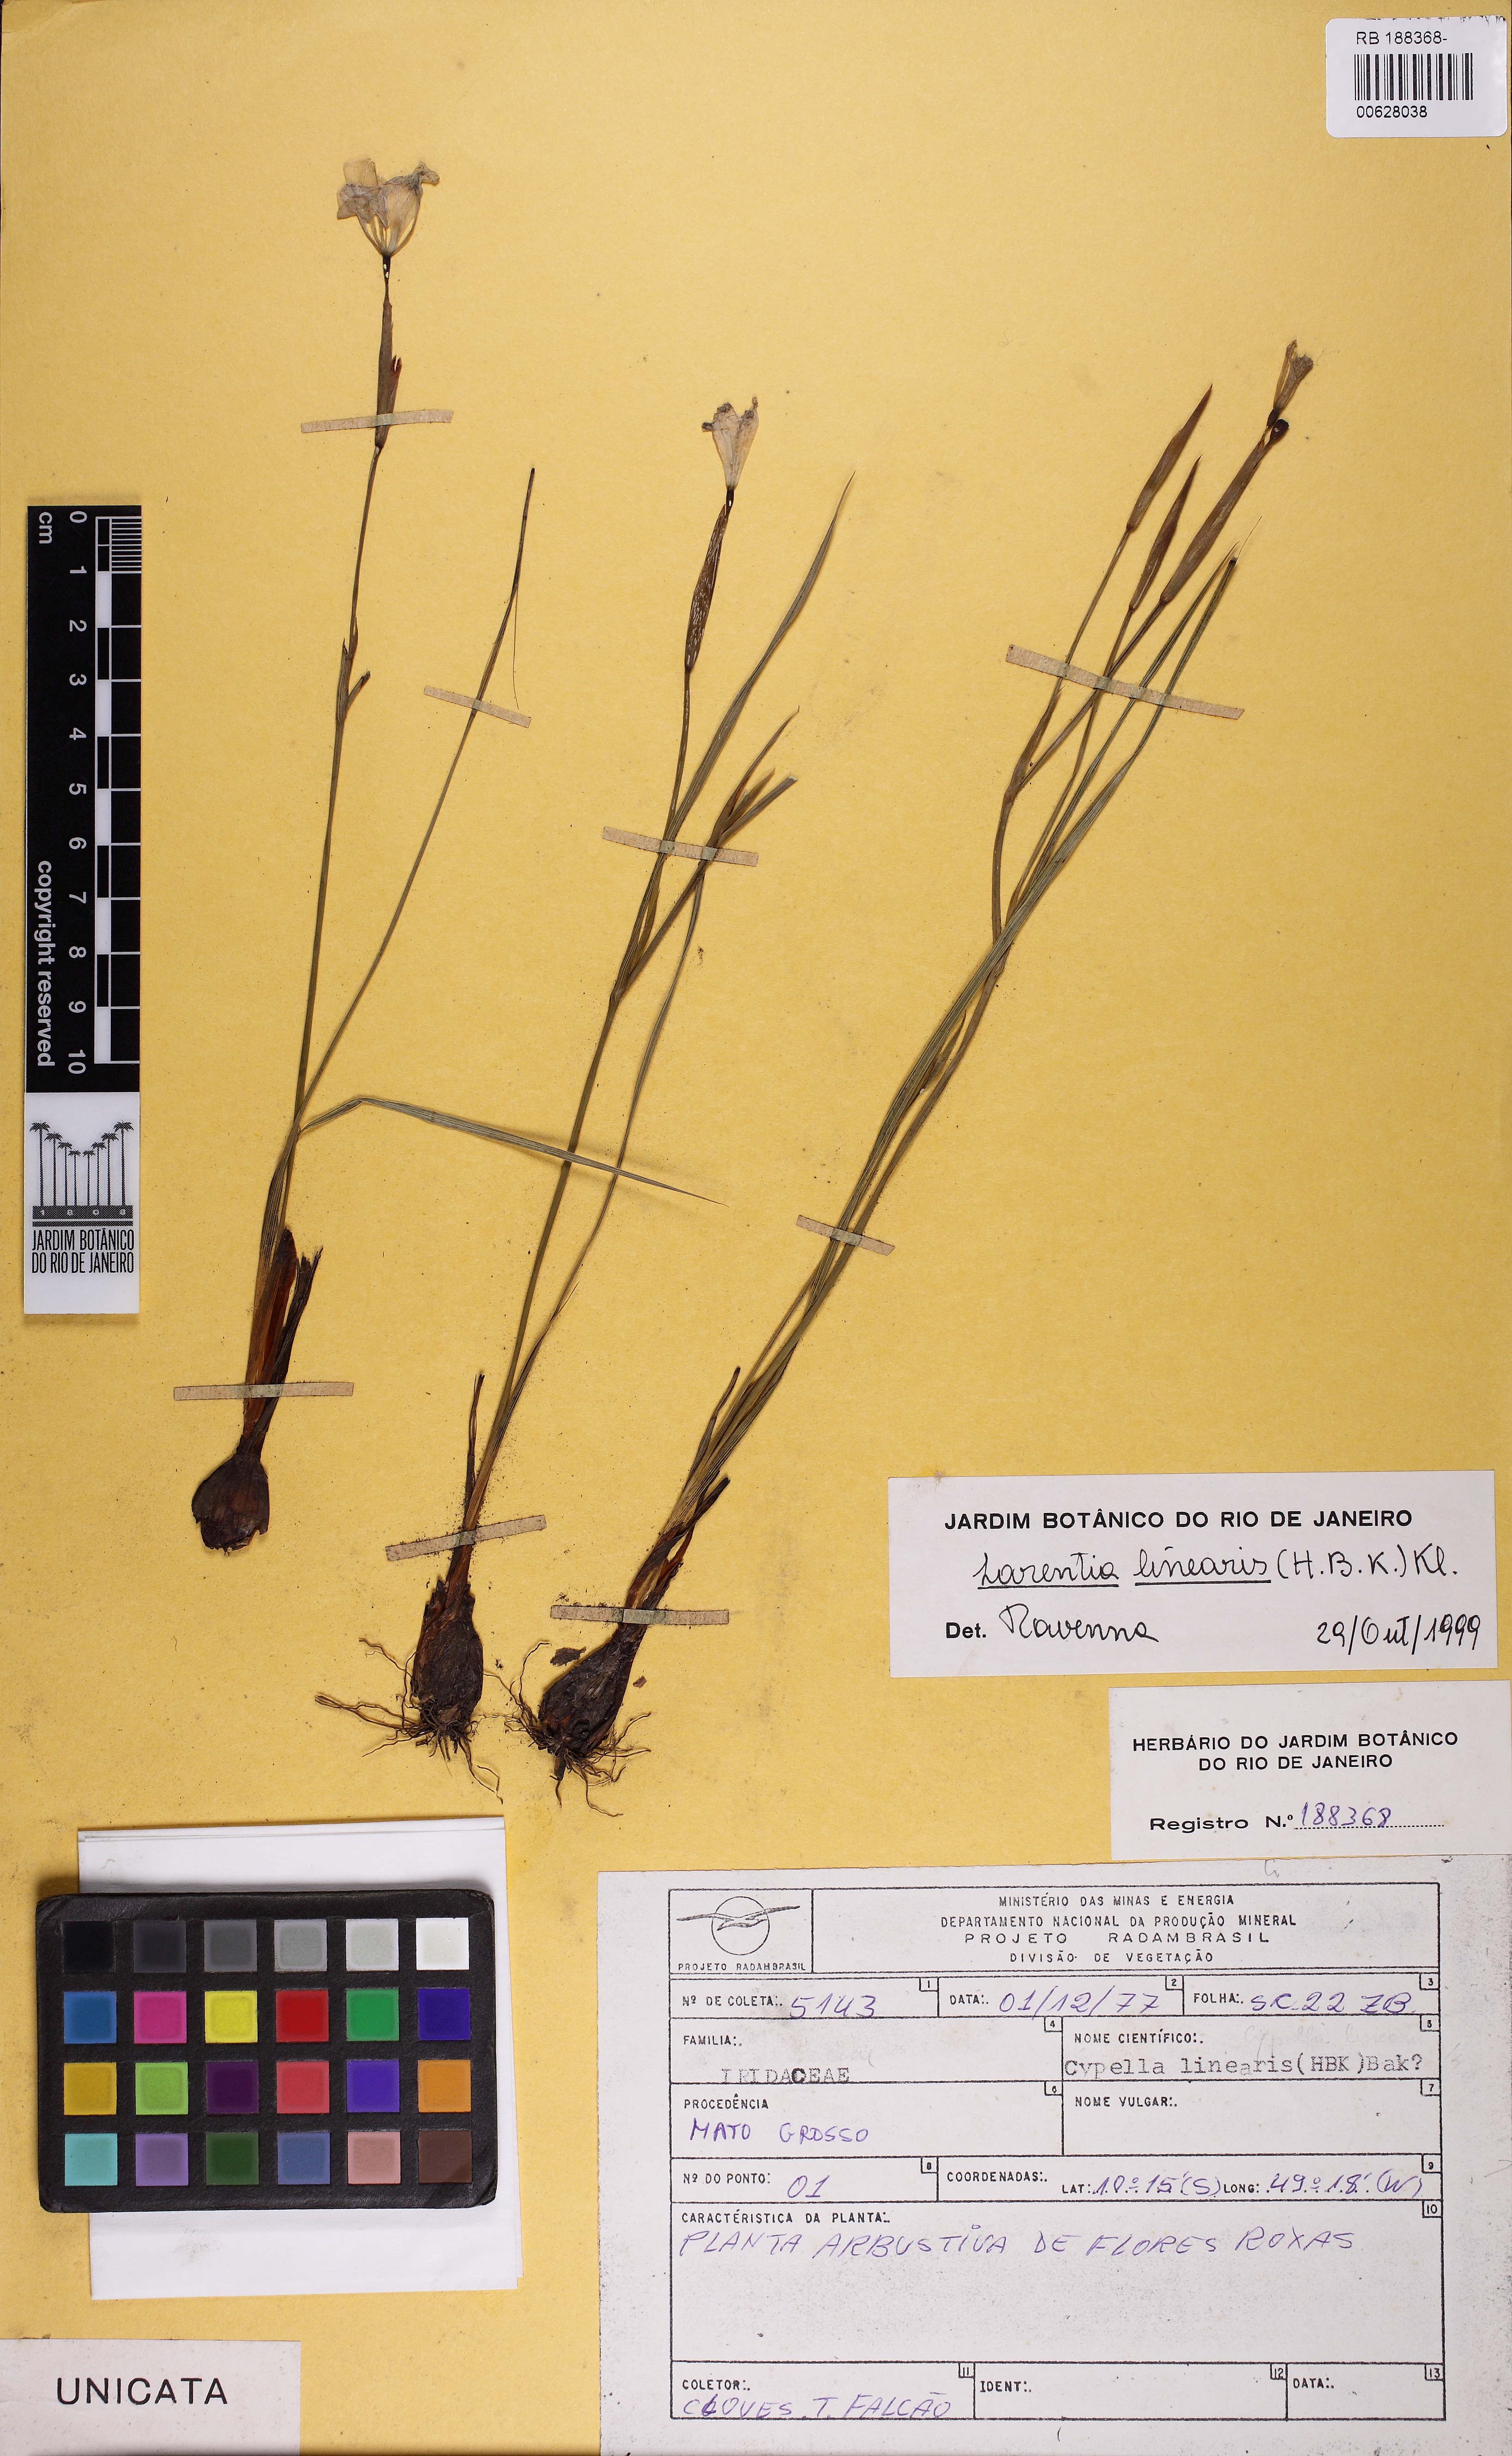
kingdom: Plantae
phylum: Tracheophyta
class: Liliopsida
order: Asparagales
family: Iridaceae
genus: Larentia
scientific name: Larentia linearis
